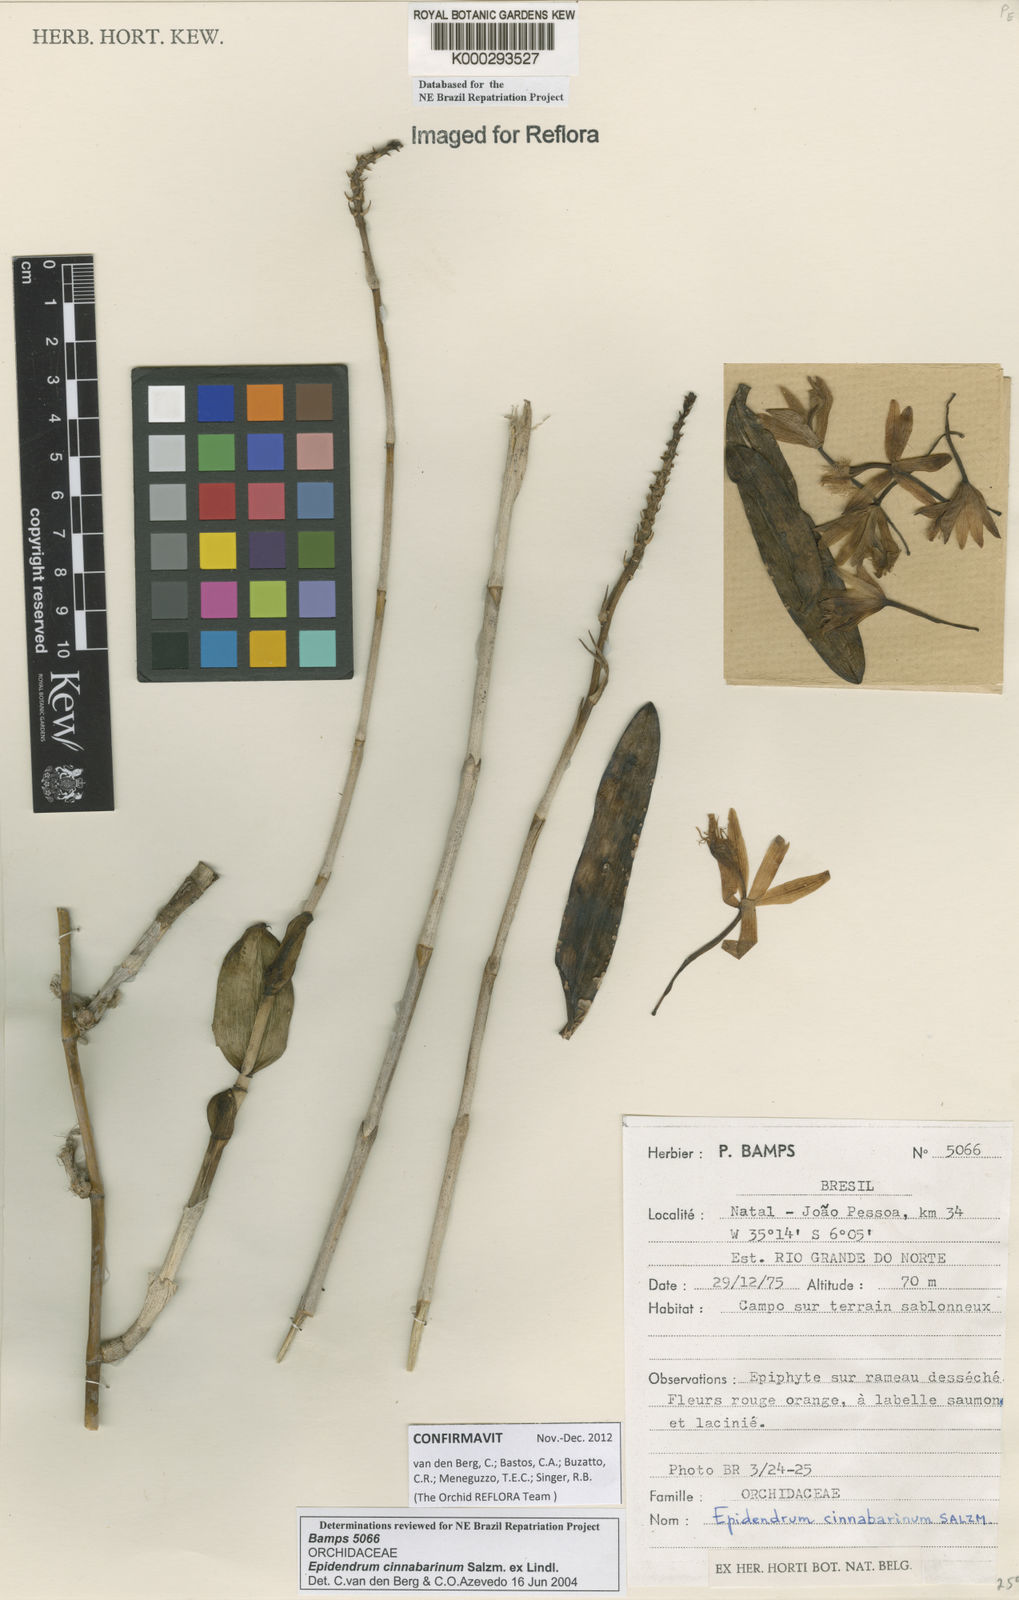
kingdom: Plantae
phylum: Tracheophyta
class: Liliopsida
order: Asparagales
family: Orchidaceae
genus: Epidendrum
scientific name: Epidendrum cinnabarinum
